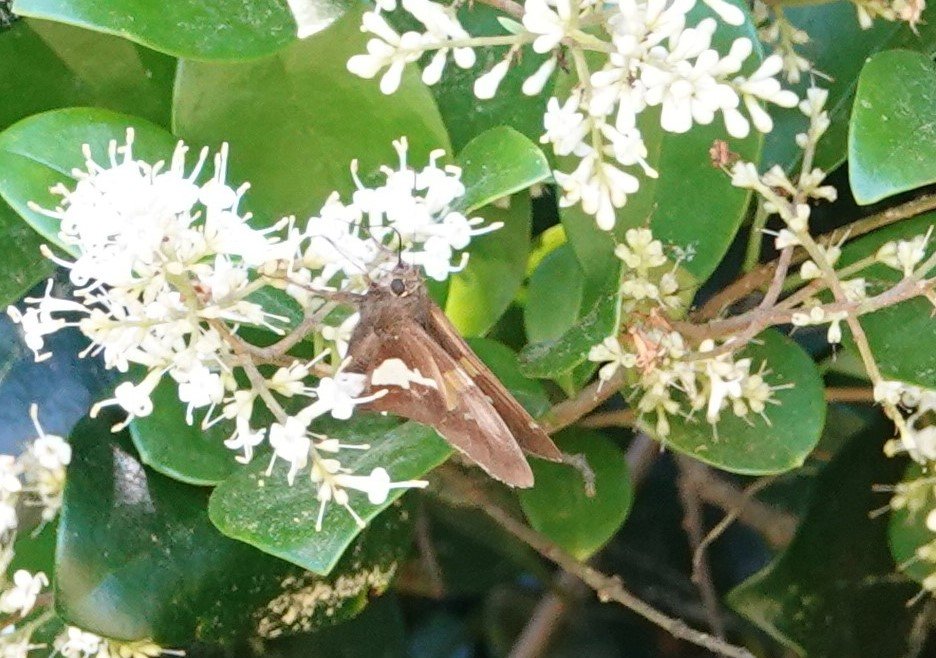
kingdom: Animalia
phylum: Arthropoda
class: Insecta
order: Lepidoptera
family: Hesperiidae
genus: Epargyreus
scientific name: Epargyreus clarus
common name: Silver-spotted Skipper
